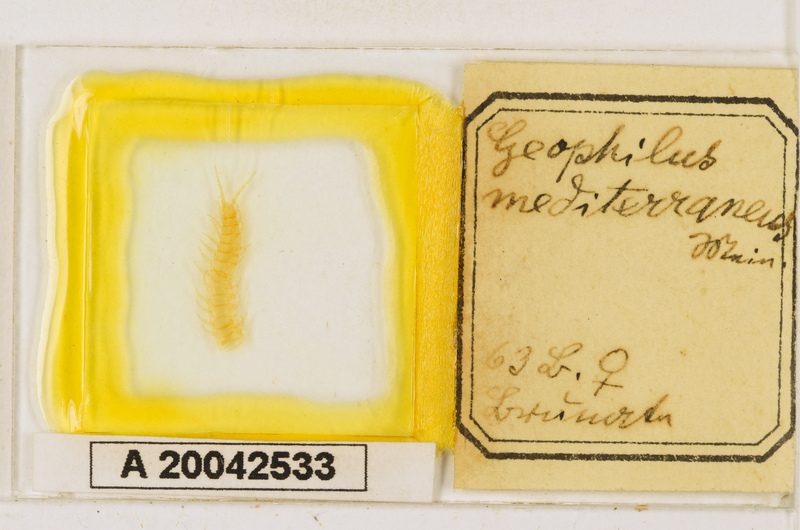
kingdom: Animalia
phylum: Arthropoda
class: Chilopoda
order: Geophilomorpha
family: Geophilidae
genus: Pleurogeophilus
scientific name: Pleurogeophilus mediterraneus
